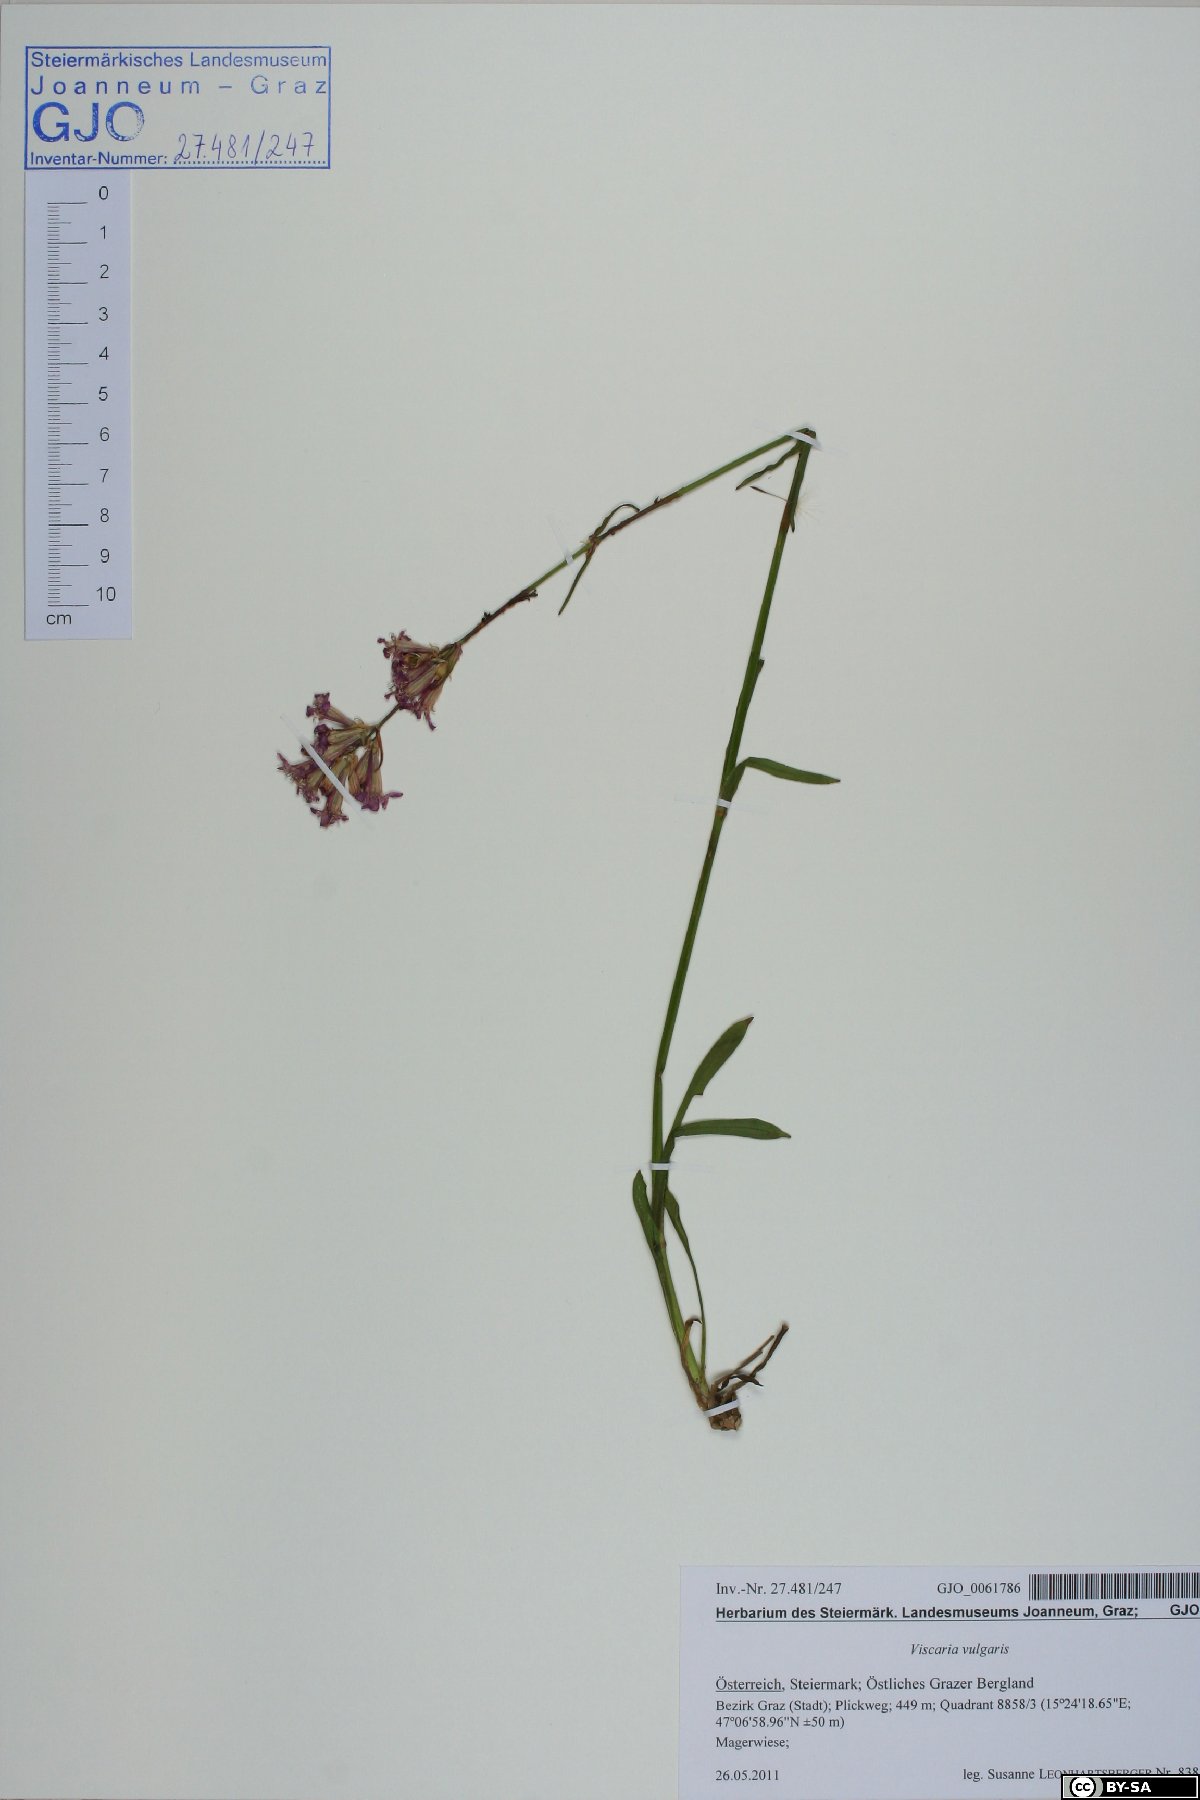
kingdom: Plantae
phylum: Tracheophyta
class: Magnoliopsida
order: Caryophyllales
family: Caryophyllaceae
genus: Viscaria
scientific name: Viscaria vulgaris
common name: Clammy campion
